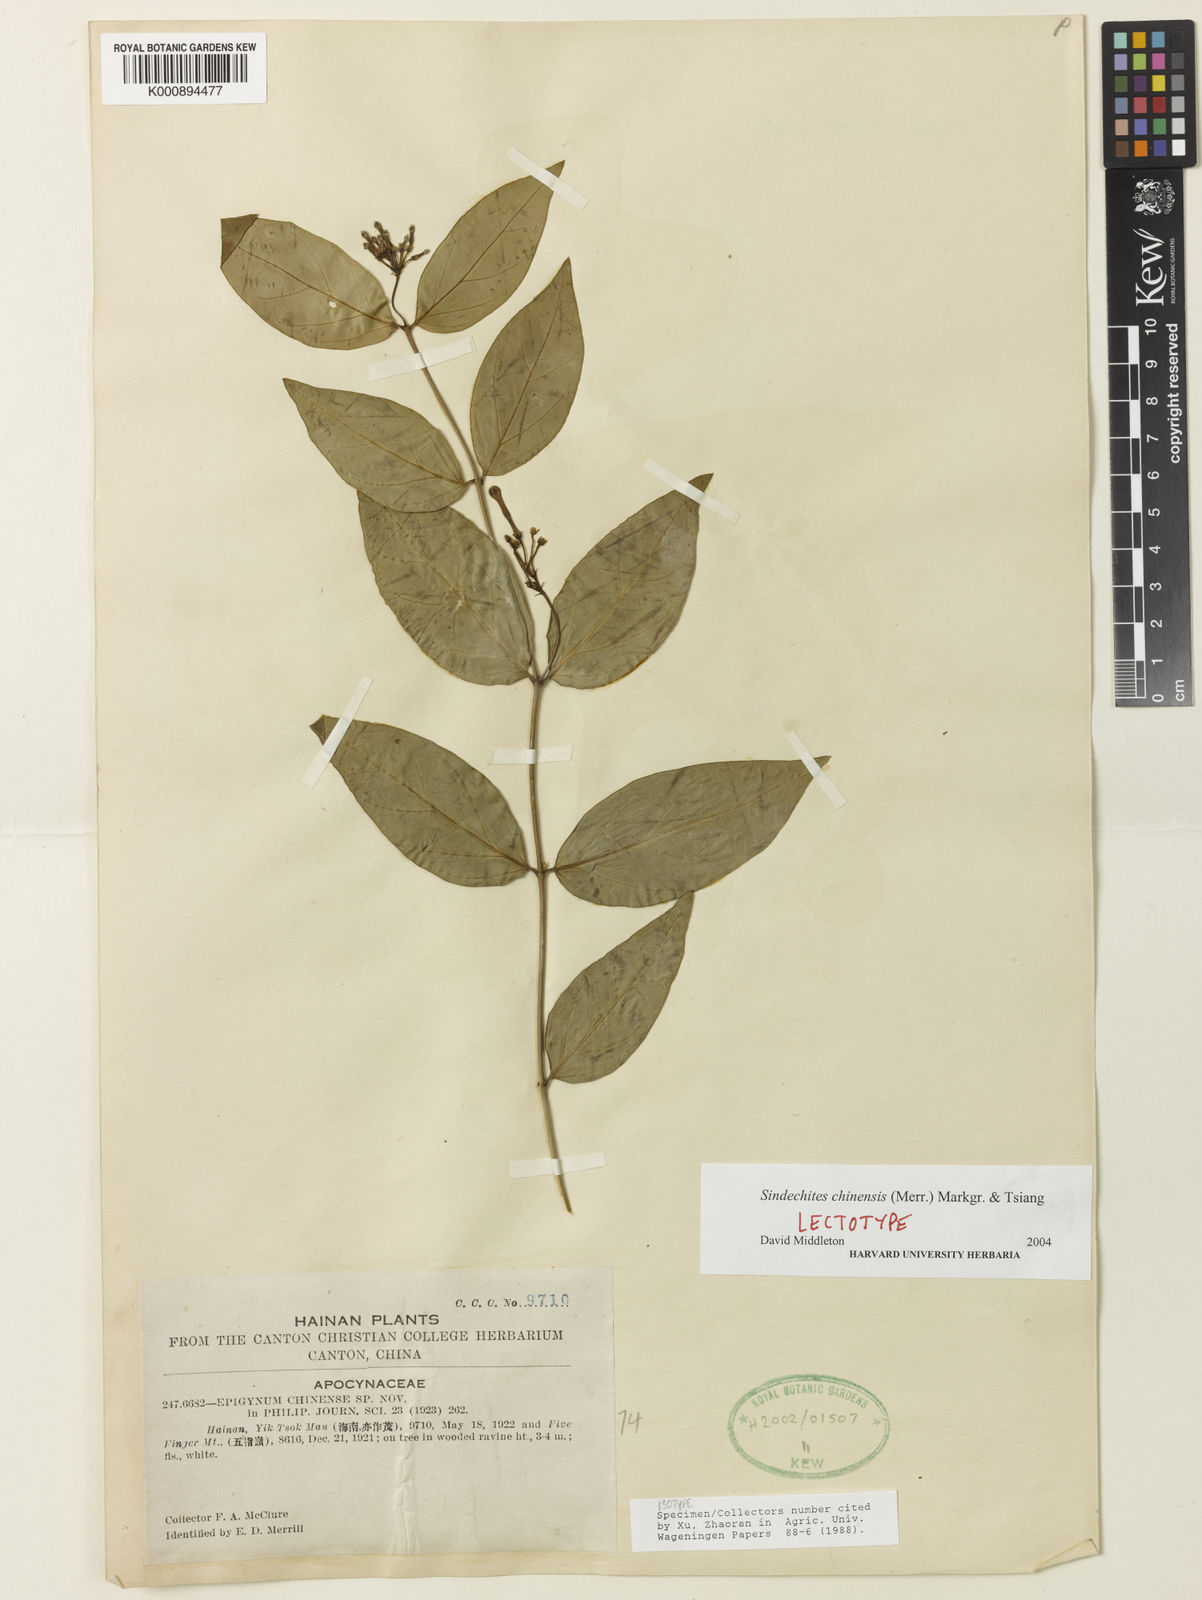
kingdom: Plantae
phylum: Tracheophyta
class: Magnoliopsida
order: Gentianales
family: Apocynaceae
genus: Streptoechites
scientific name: Streptoechites chinensis
